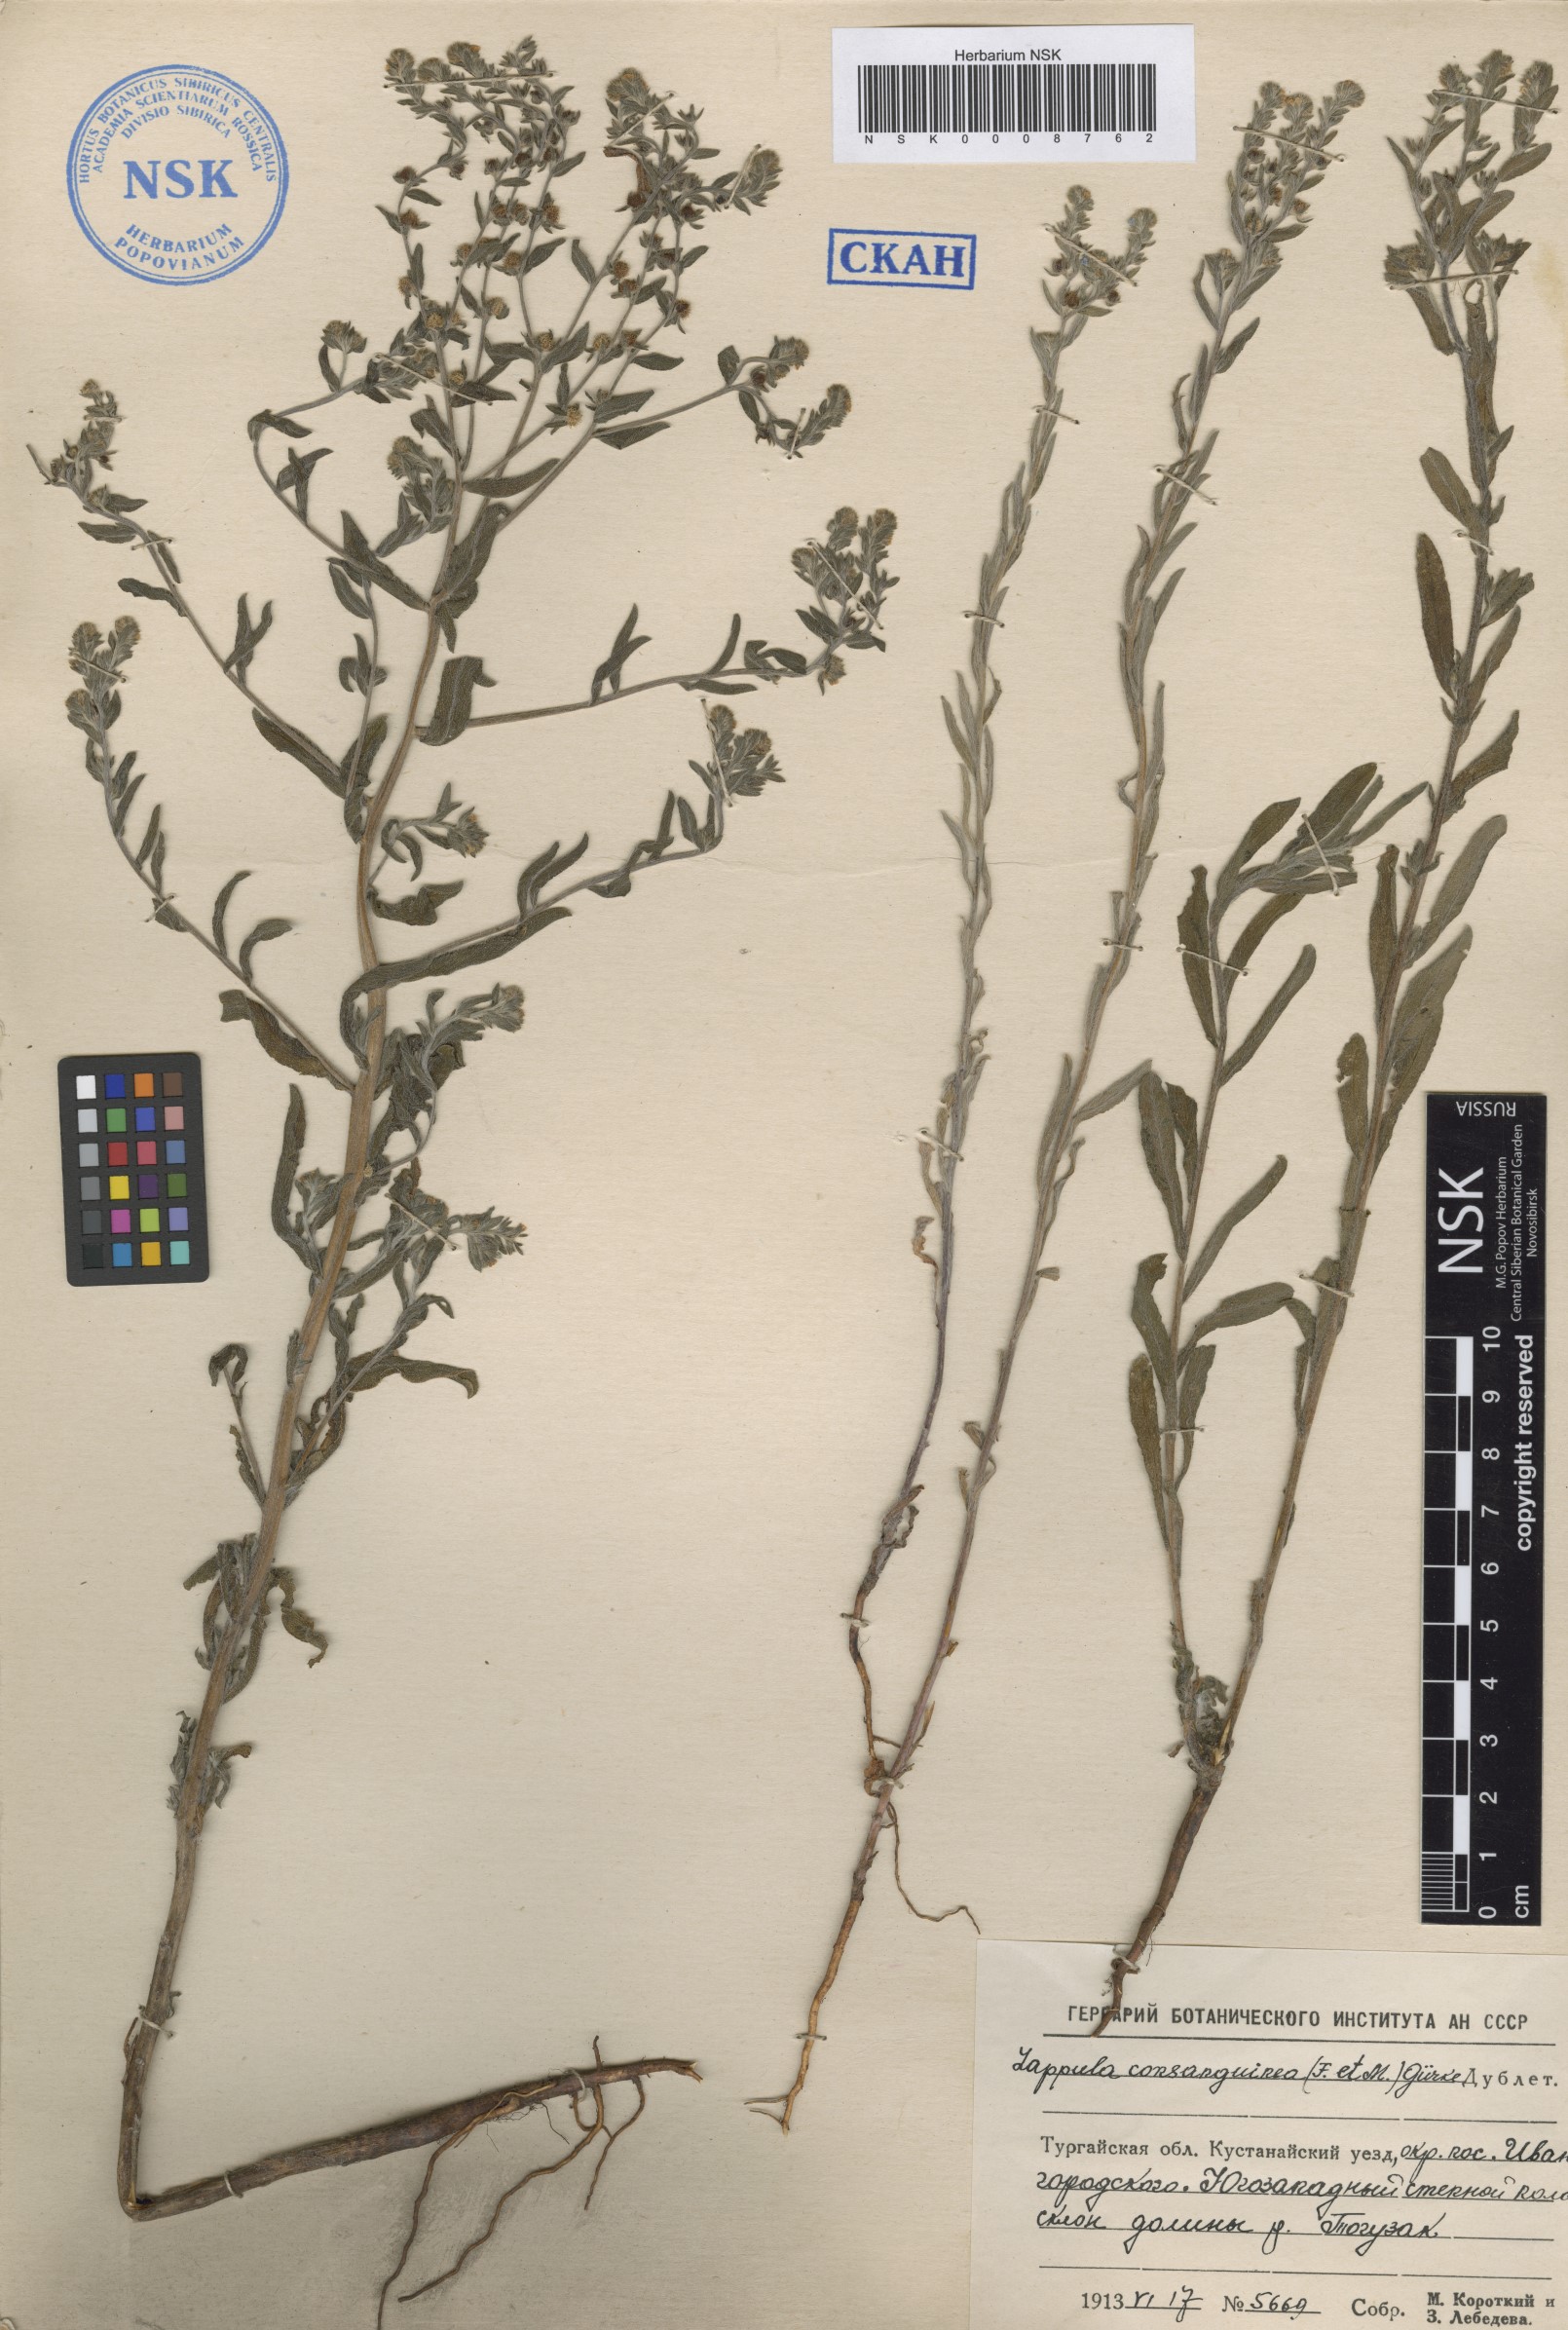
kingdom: Plantae
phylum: Tracheophyta
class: Magnoliopsida
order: Boraginales
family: Boraginaceae
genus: Lappula
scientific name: Lappula squarrosa
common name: European stickseed
